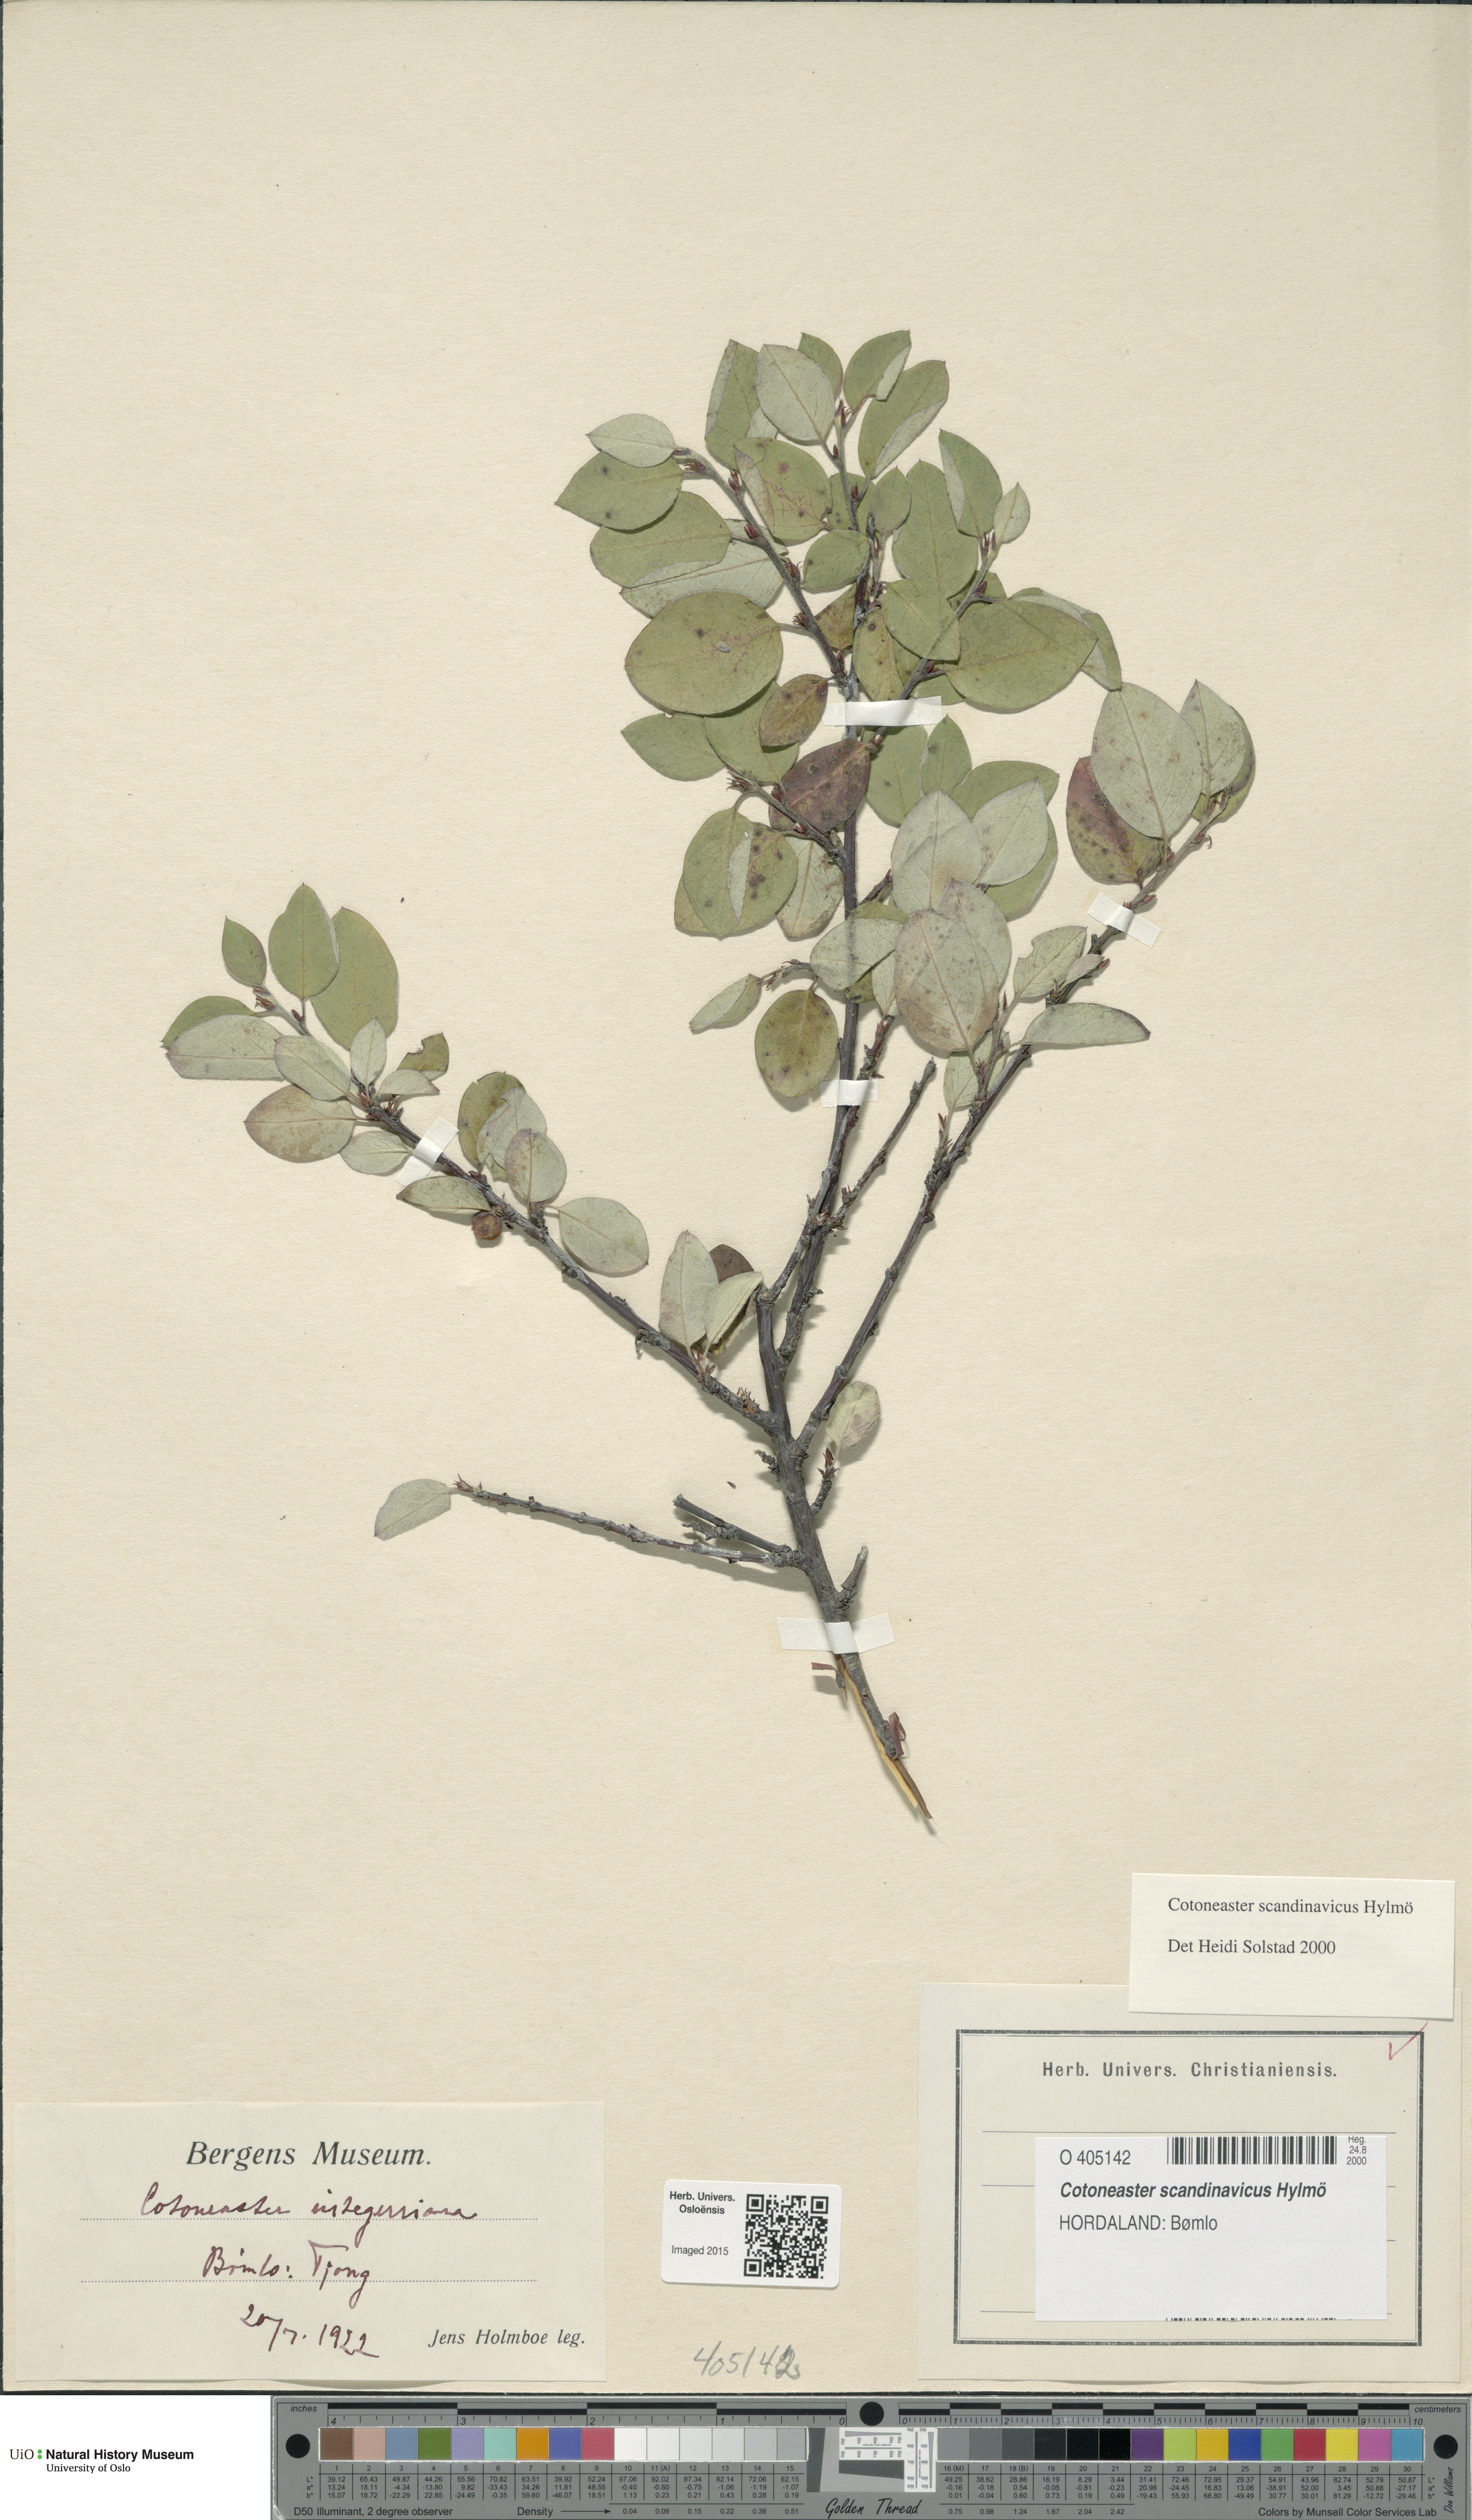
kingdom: Plantae
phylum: Tracheophyta
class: Magnoliopsida
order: Rosales
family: Rosaceae
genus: Cotoneaster
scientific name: Cotoneaster integerrimus
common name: Wild cotoneaster
